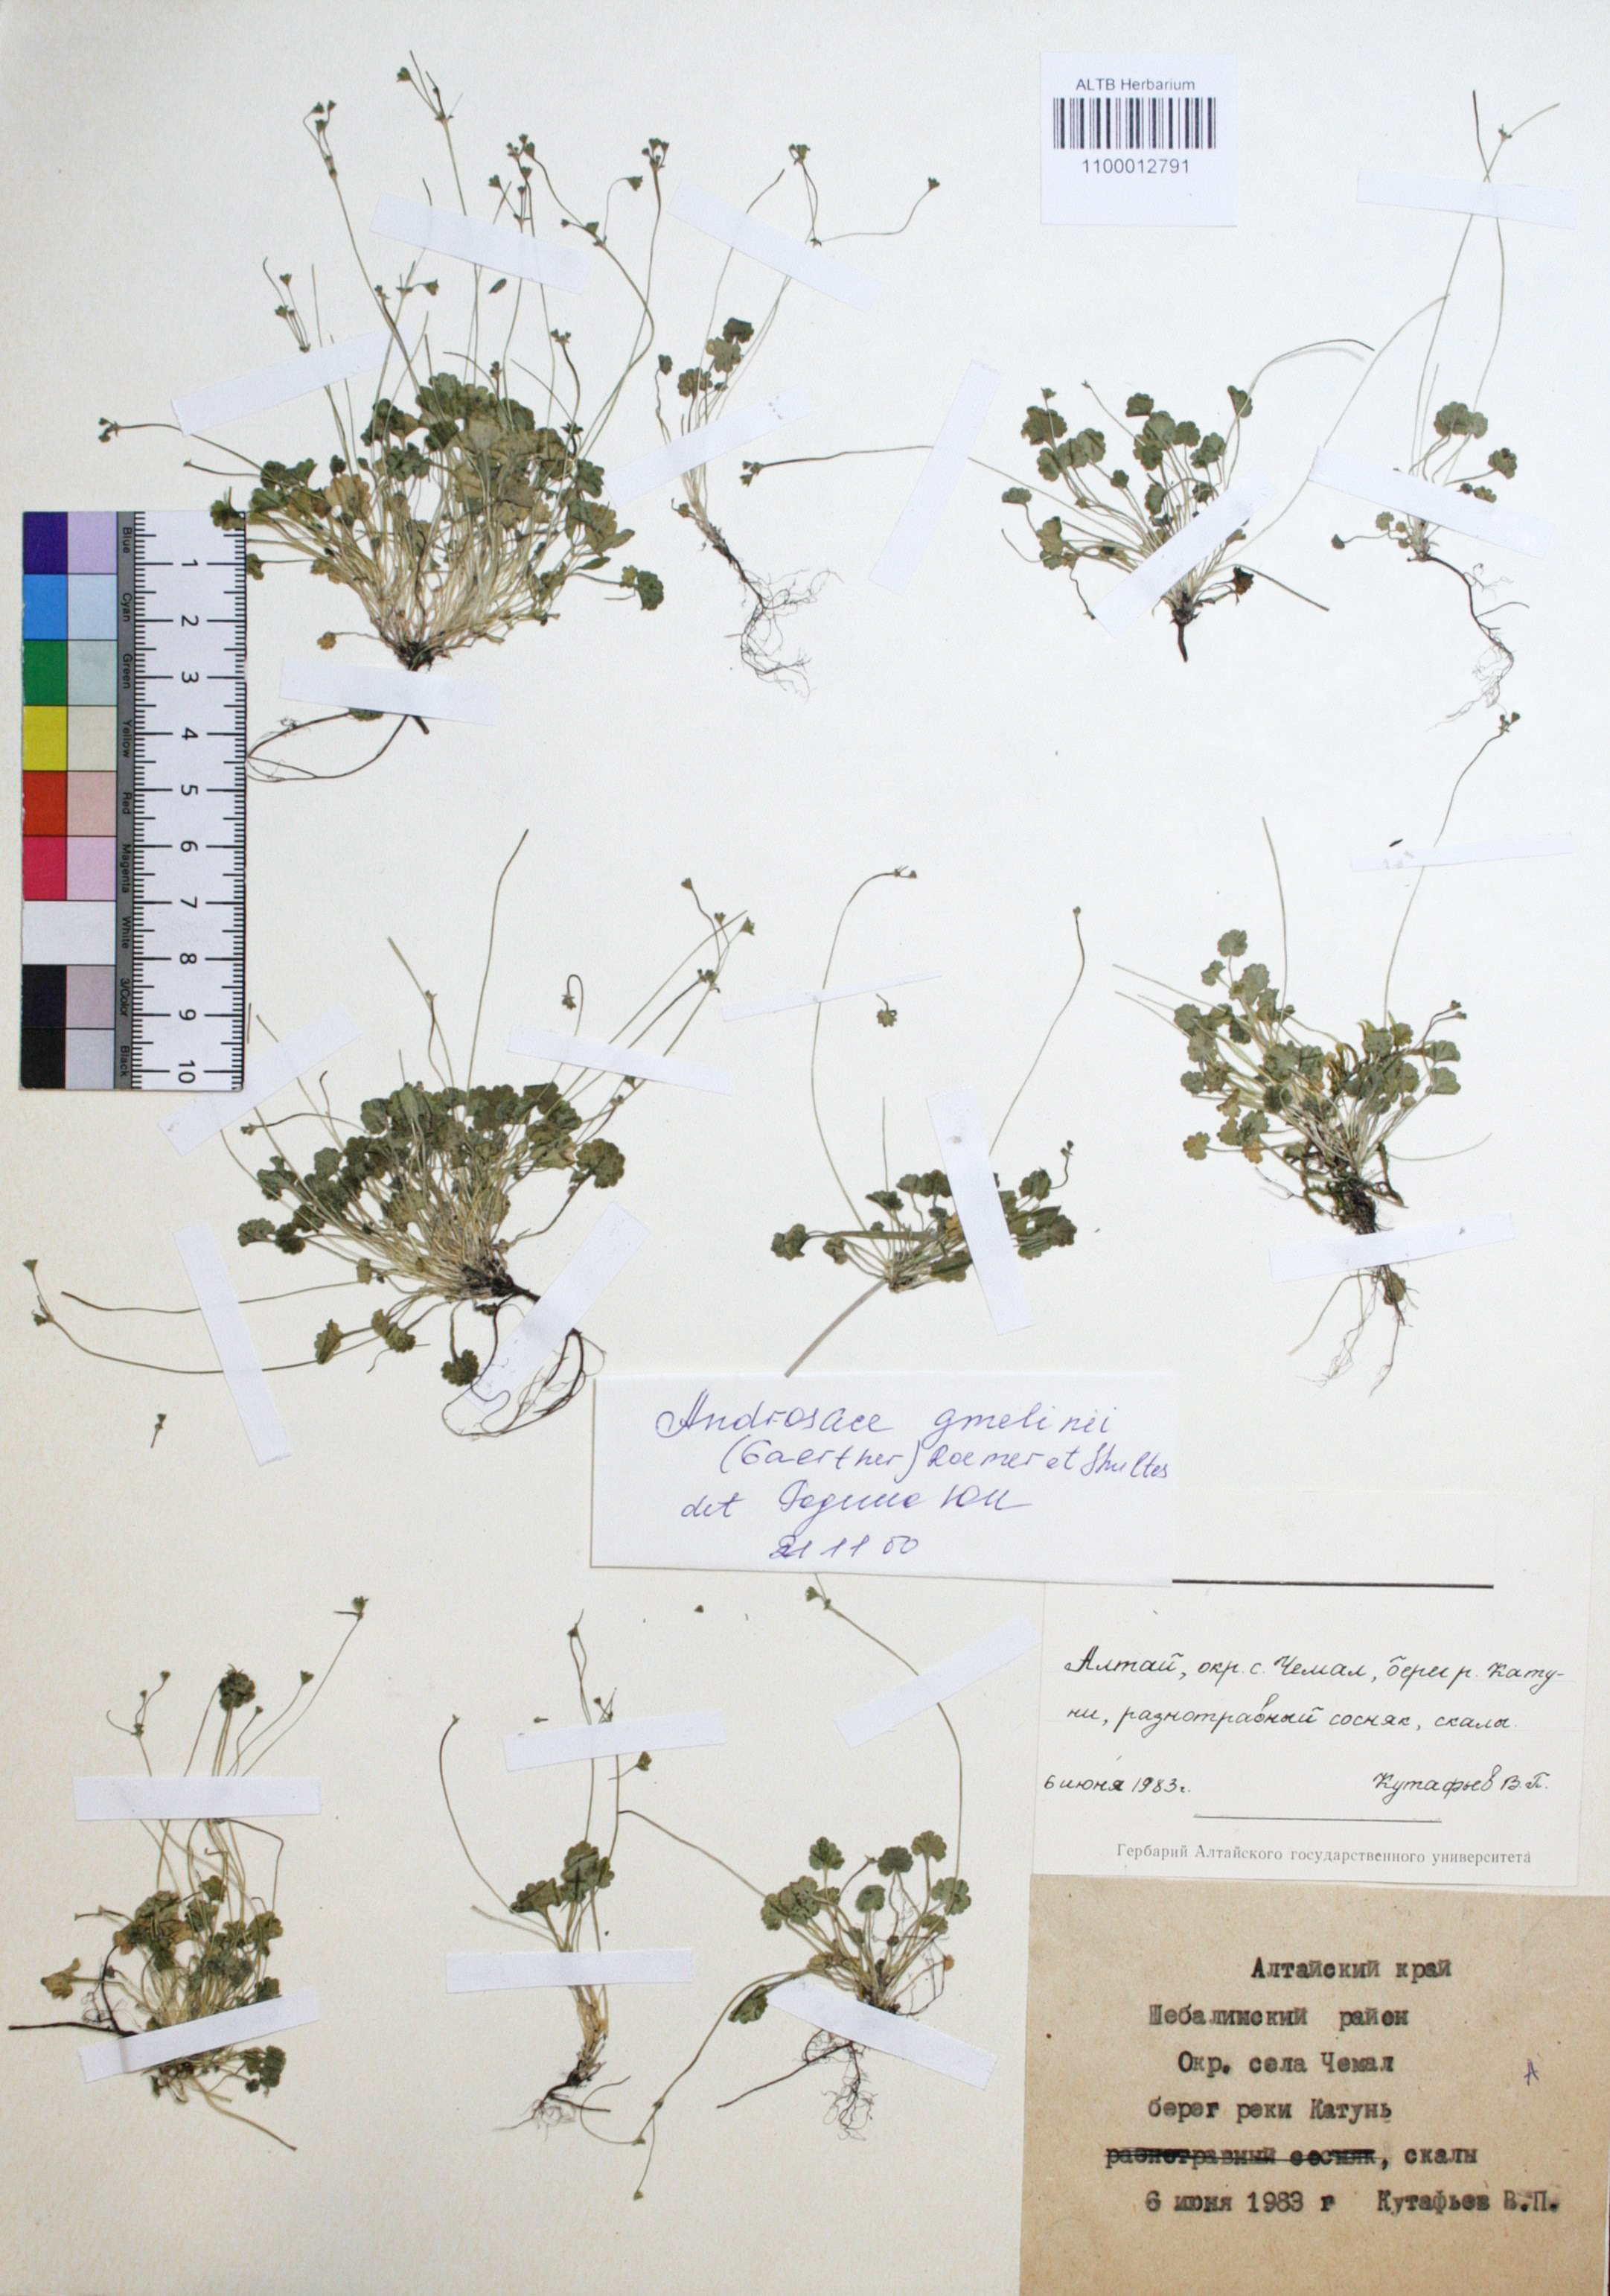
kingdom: Plantae
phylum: Tracheophyta
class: Magnoliopsida
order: Ericales
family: Primulaceae
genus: Androsace
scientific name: Androsace gmelinii
